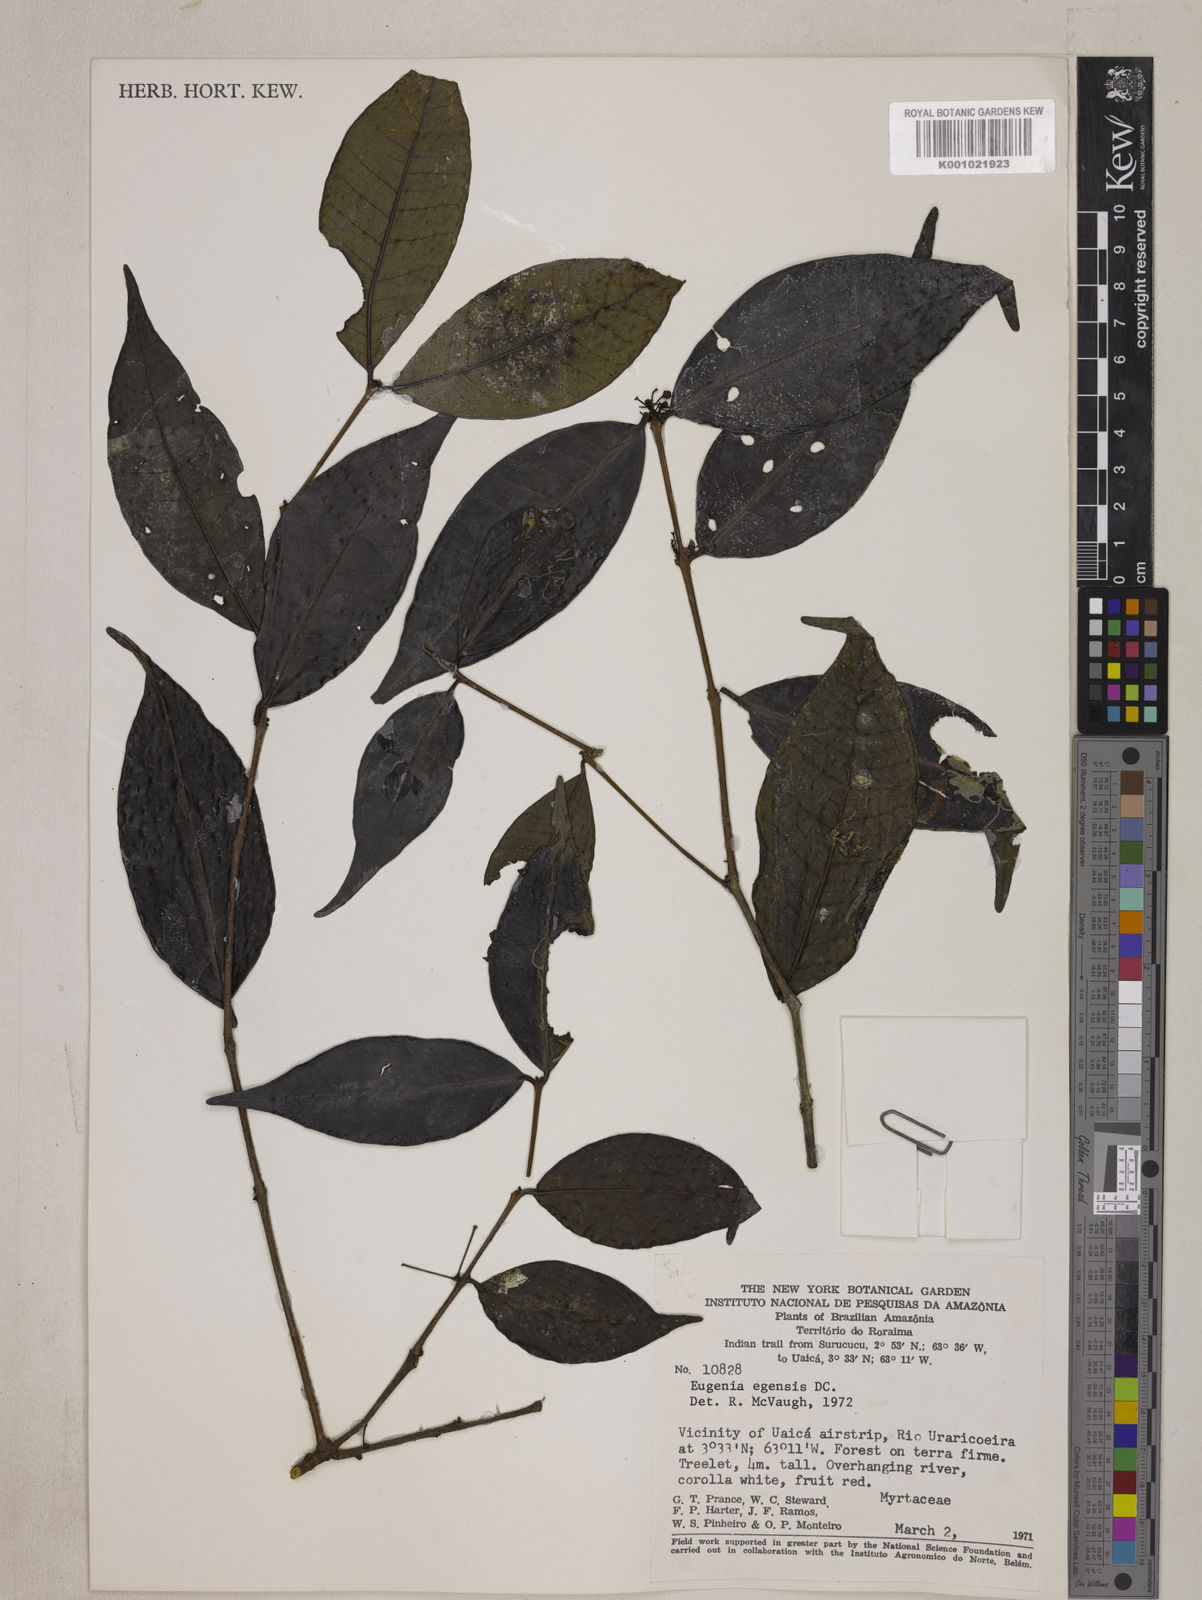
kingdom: Plantae
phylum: Tracheophyta
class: Magnoliopsida
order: Myrtales
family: Myrtaceae
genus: Eugenia
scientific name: Eugenia egensis
